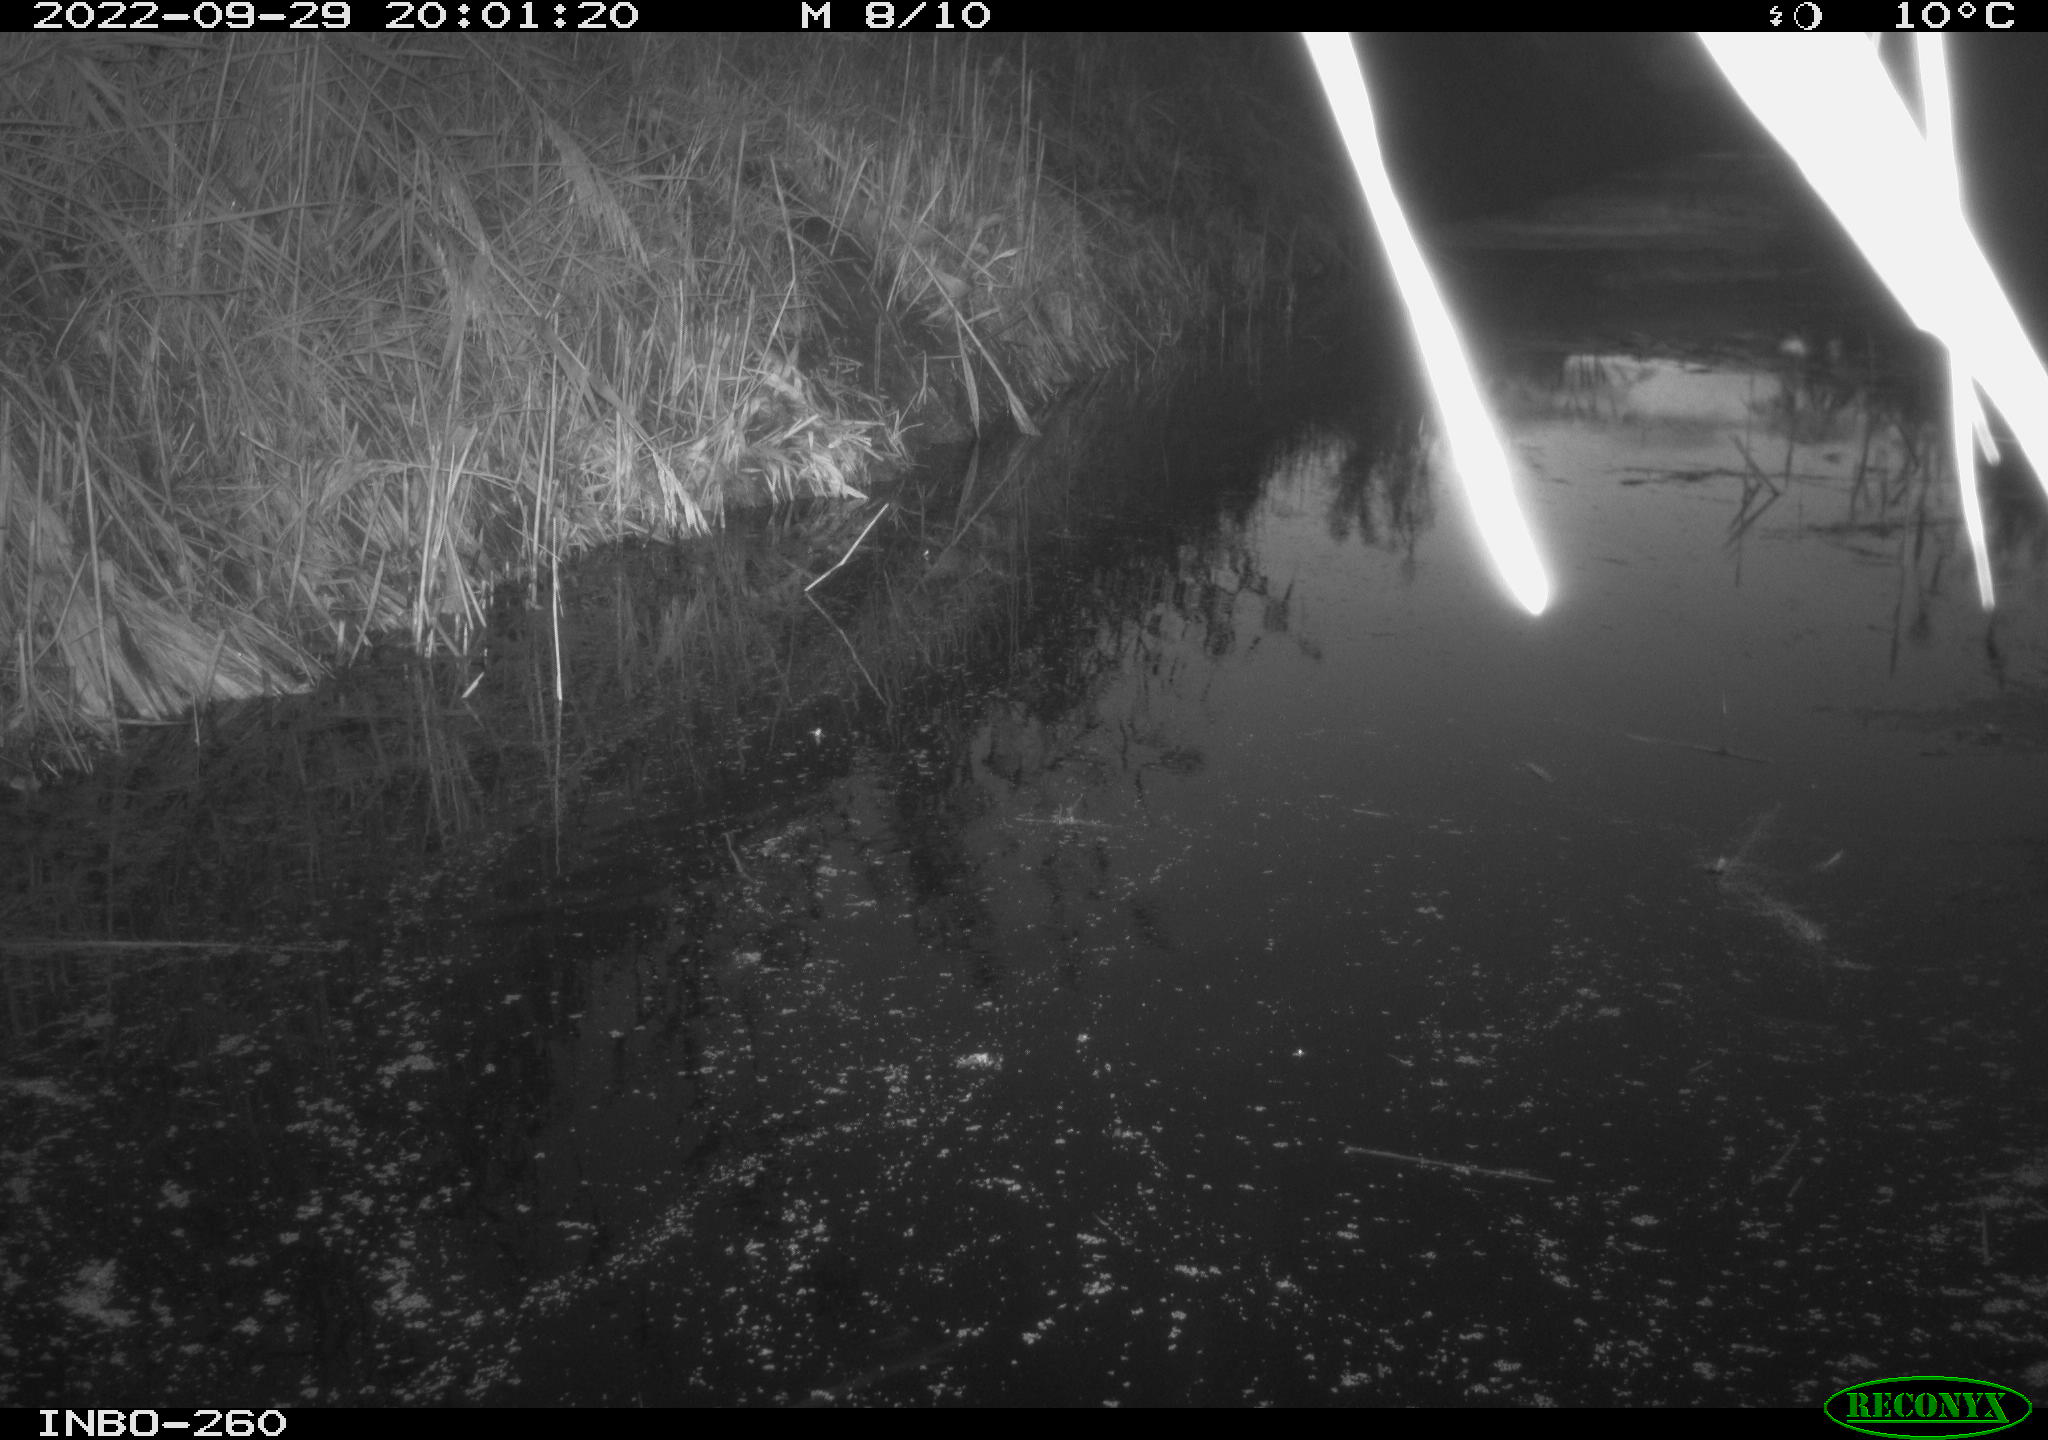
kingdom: Animalia
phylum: Chordata
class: Mammalia
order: Rodentia
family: Muridae
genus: Rattus
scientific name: Rattus norvegicus
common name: Brown rat
